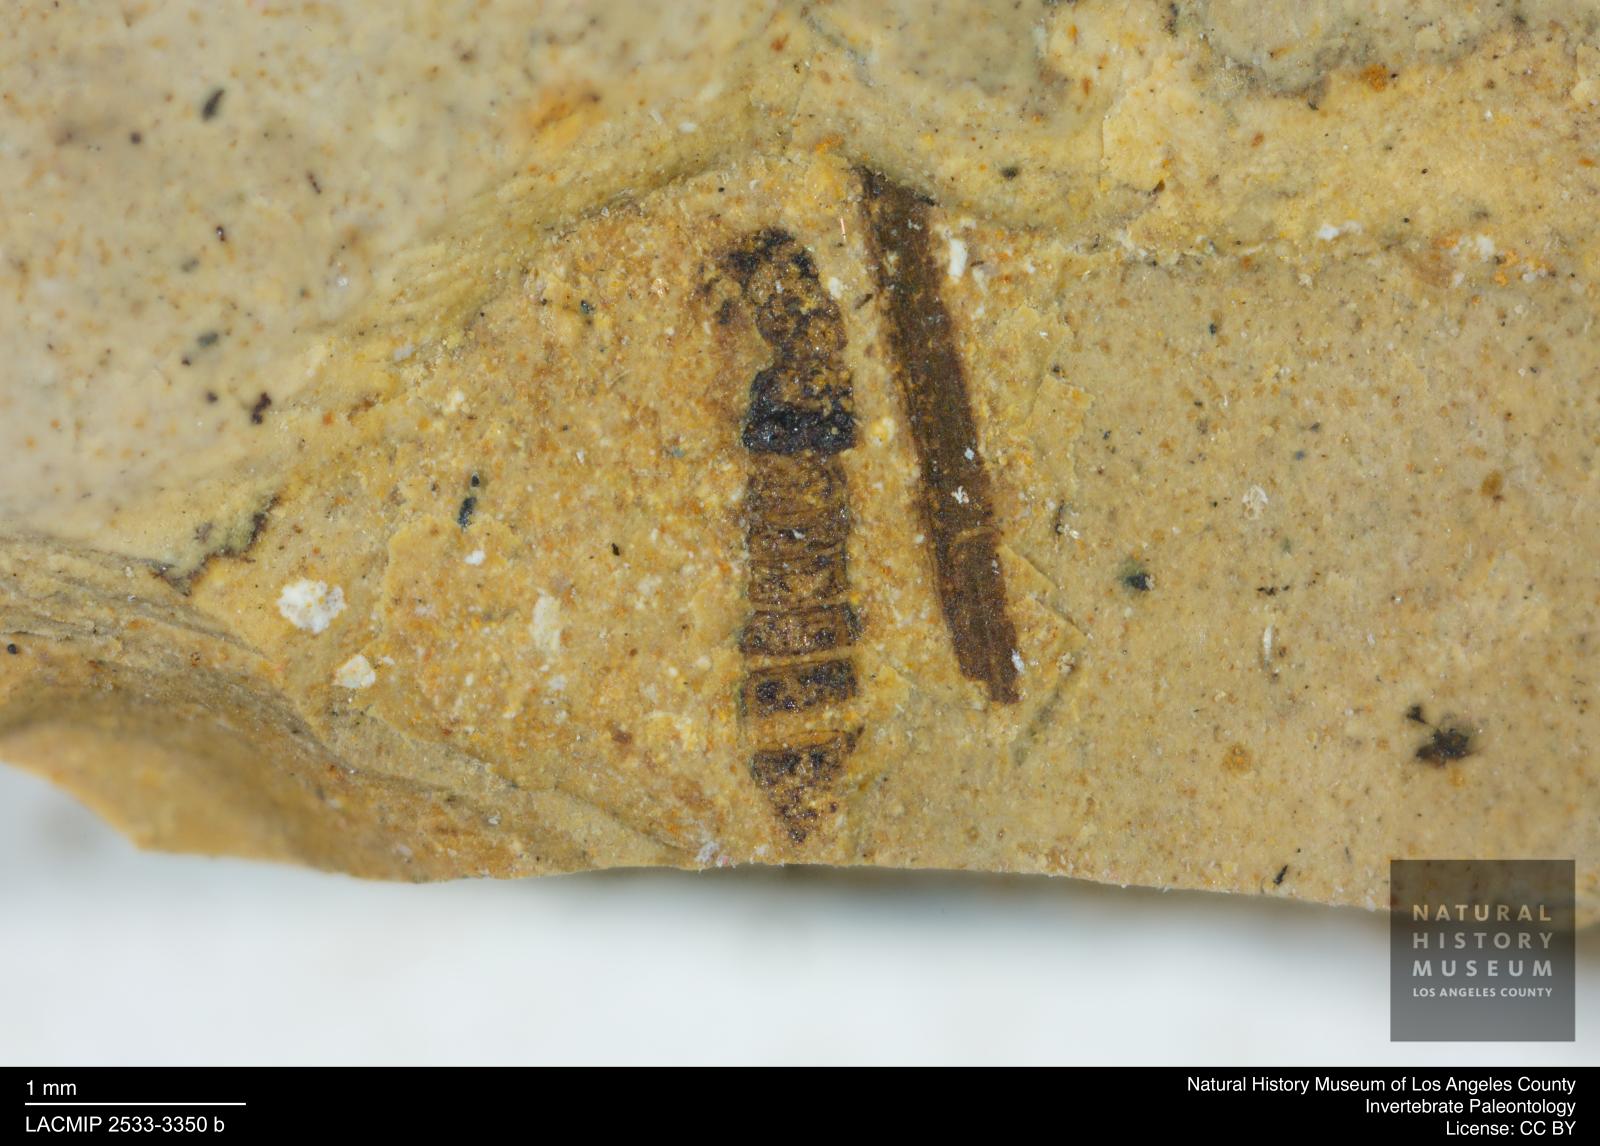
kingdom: Animalia
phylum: Arthropoda
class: Insecta
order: Coleoptera
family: Staphylinidae
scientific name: Staphylinidae
